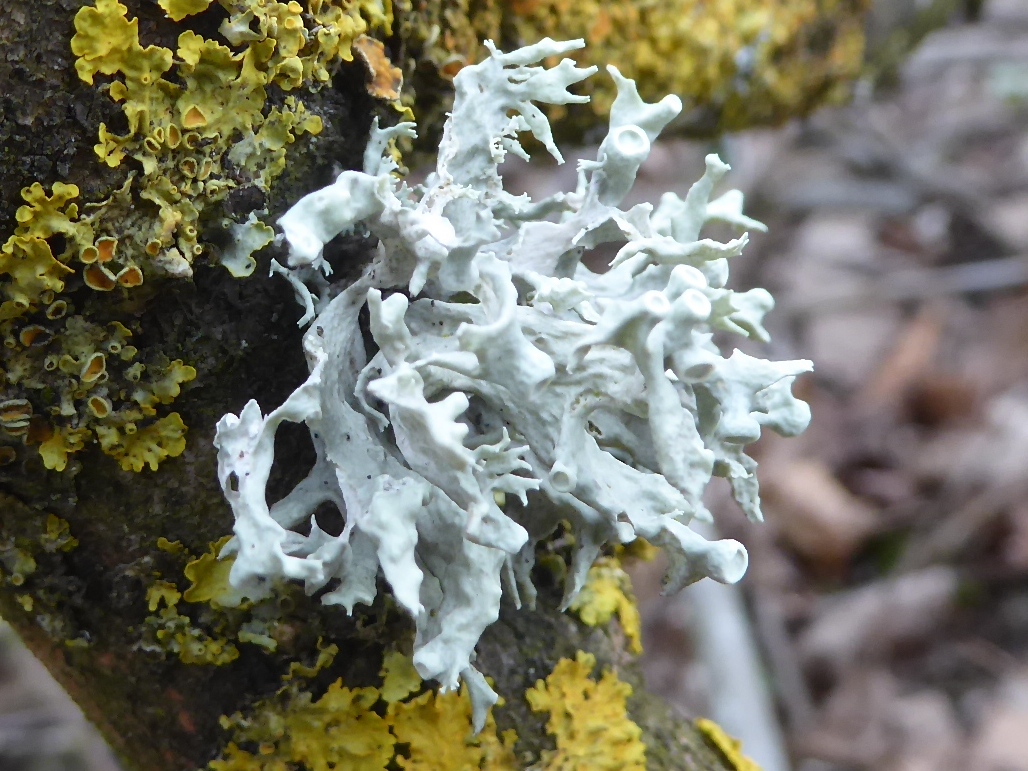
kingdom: Fungi
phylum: Ascomycota
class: Lecanoromycetes
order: Lecanorales
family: Ramalinaceae
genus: Ramalina
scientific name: Ramalina fastigiata
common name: tue-grenlav
